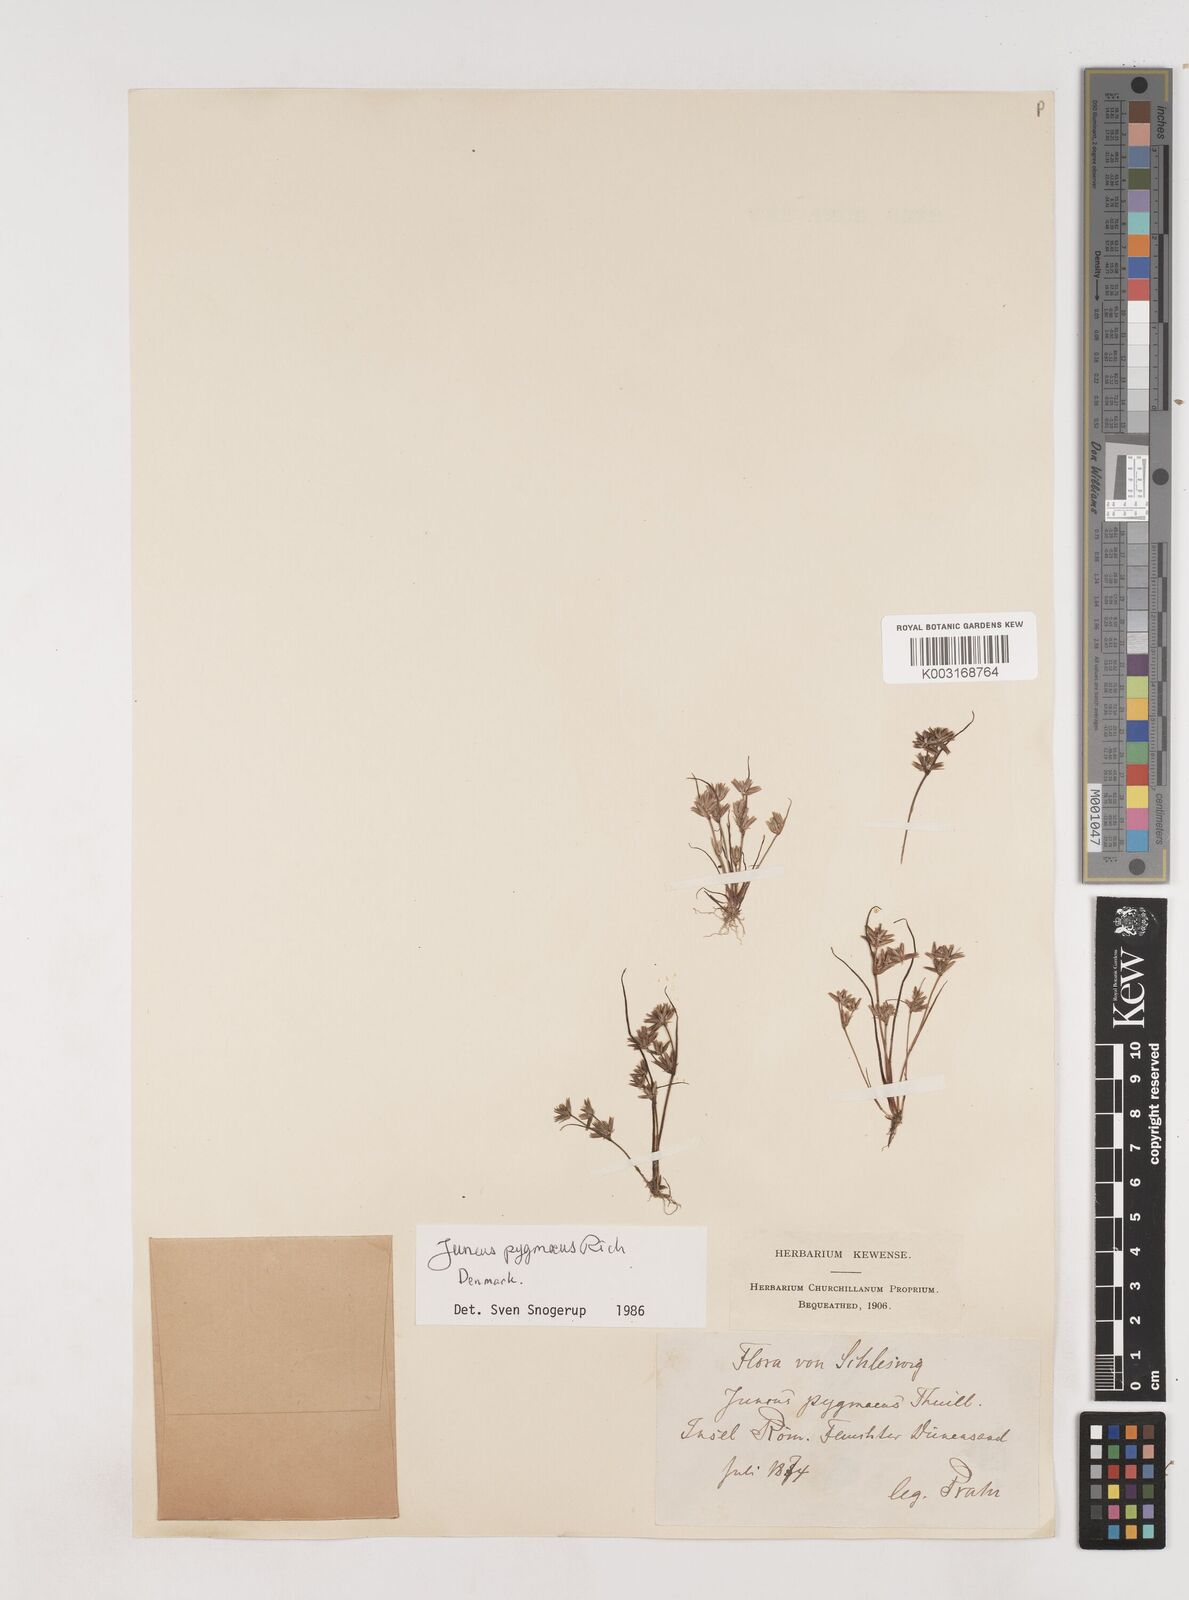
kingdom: Plantae
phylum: Tracheophyta
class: Liliopsida
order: Poales
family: Juncaceae
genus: Juncus
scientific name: Juncus pygmaeus
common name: Pigmy rush
